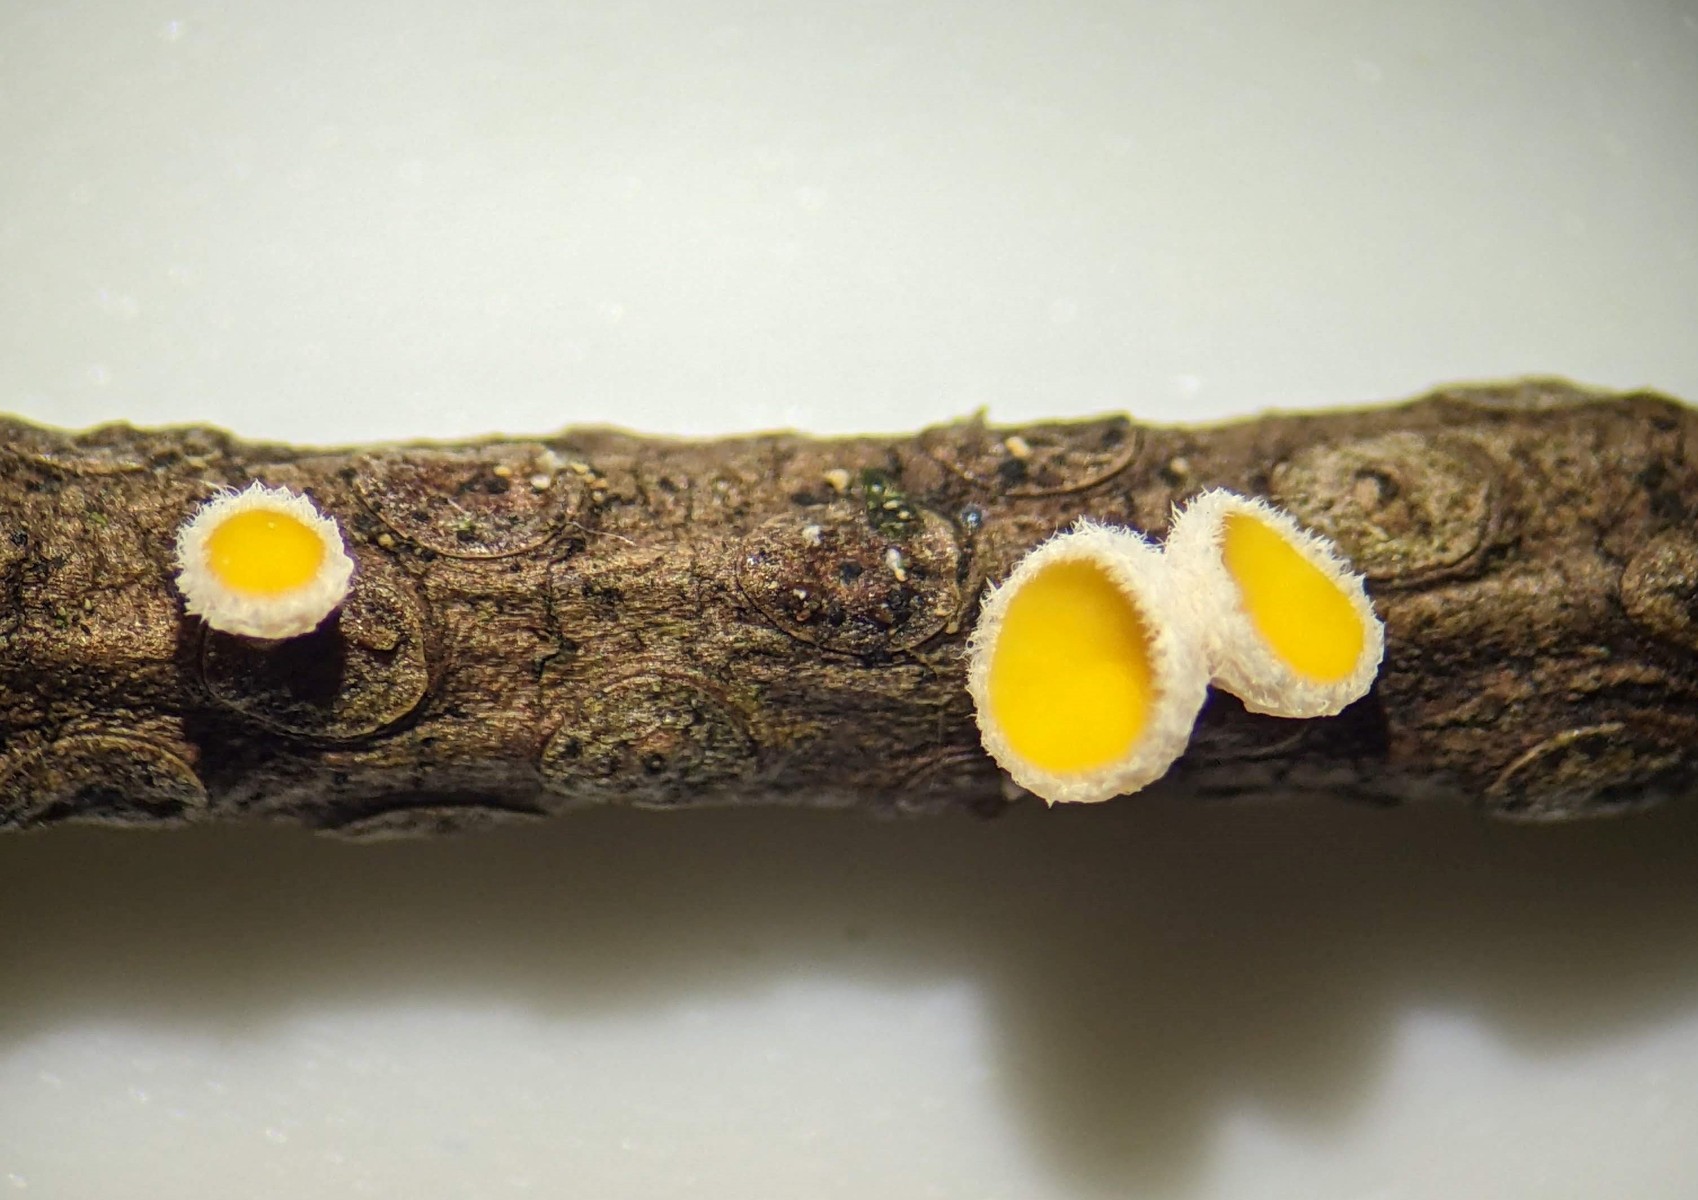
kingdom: Fungi
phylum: Ascomycota
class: Leotiomycetes
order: Helotiales
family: Lachnaceae
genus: Perrotia
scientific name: Perrotia gallica
